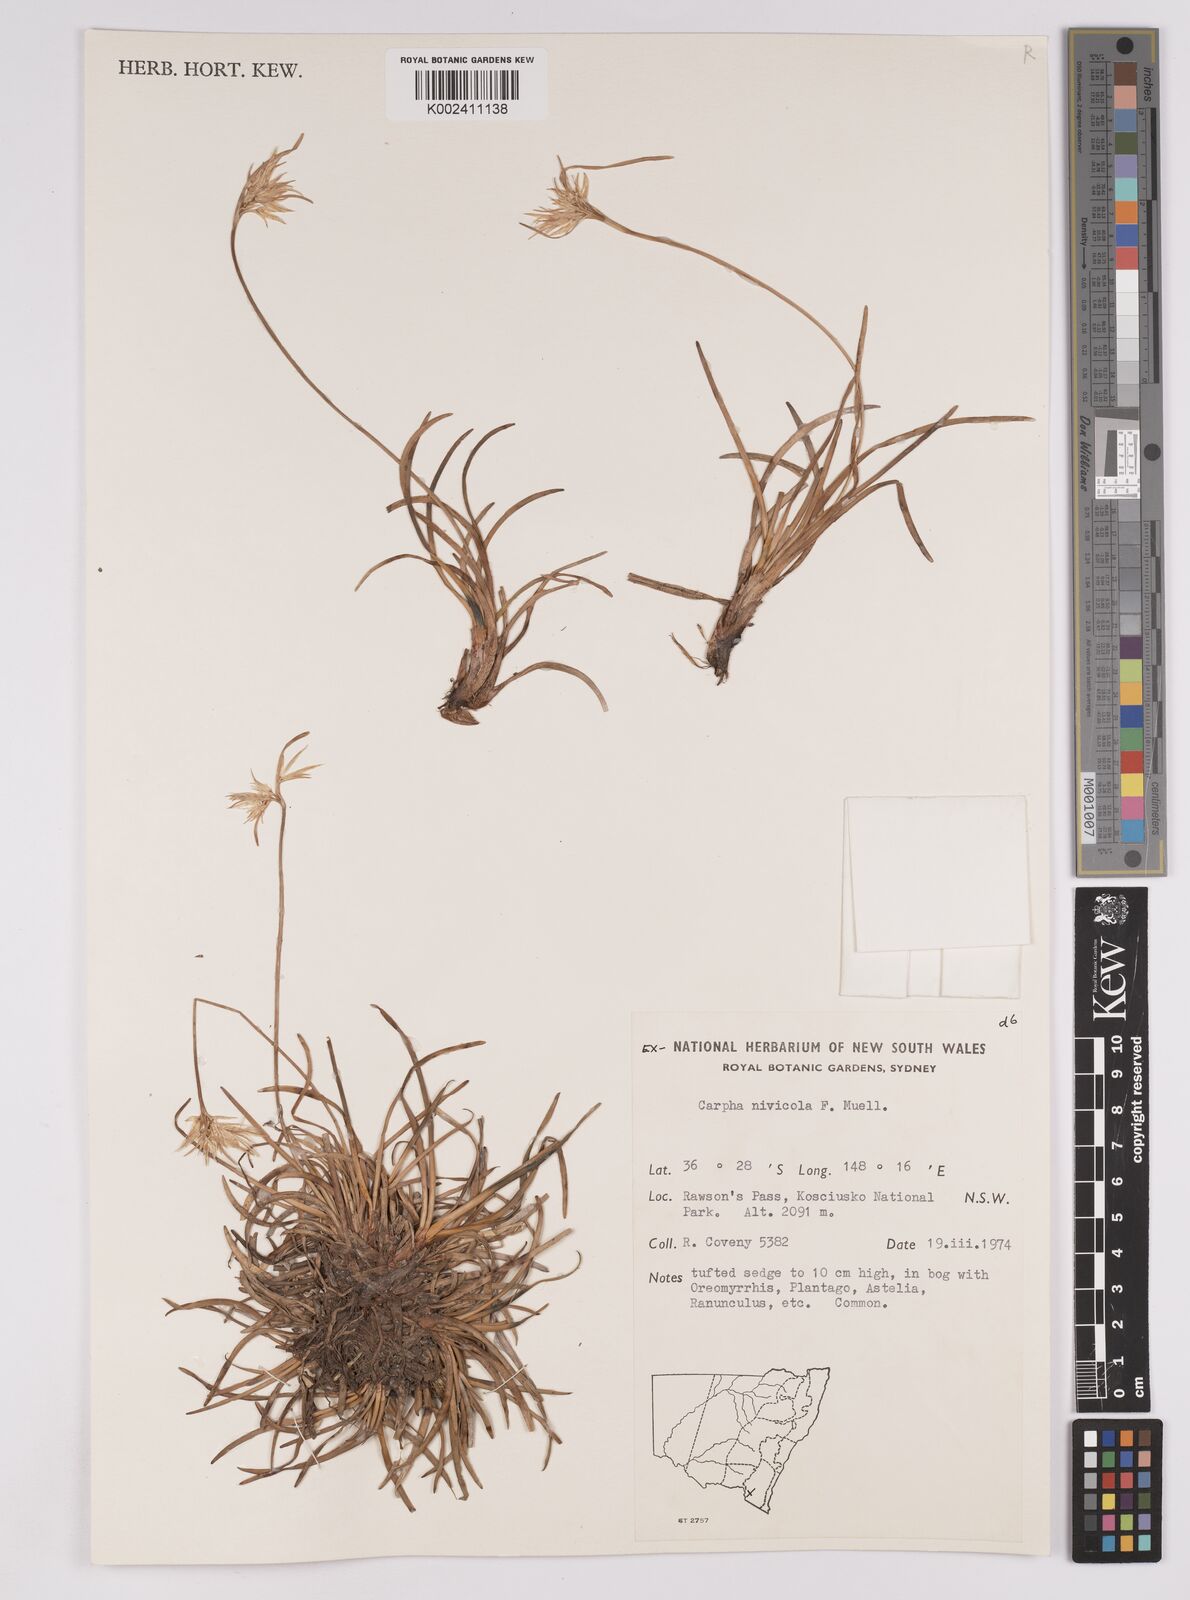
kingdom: Plantae
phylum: Tracheophyta
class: Liliopsida
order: Poales
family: Cyperaceae
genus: Carpha
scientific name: Carpha alpina
